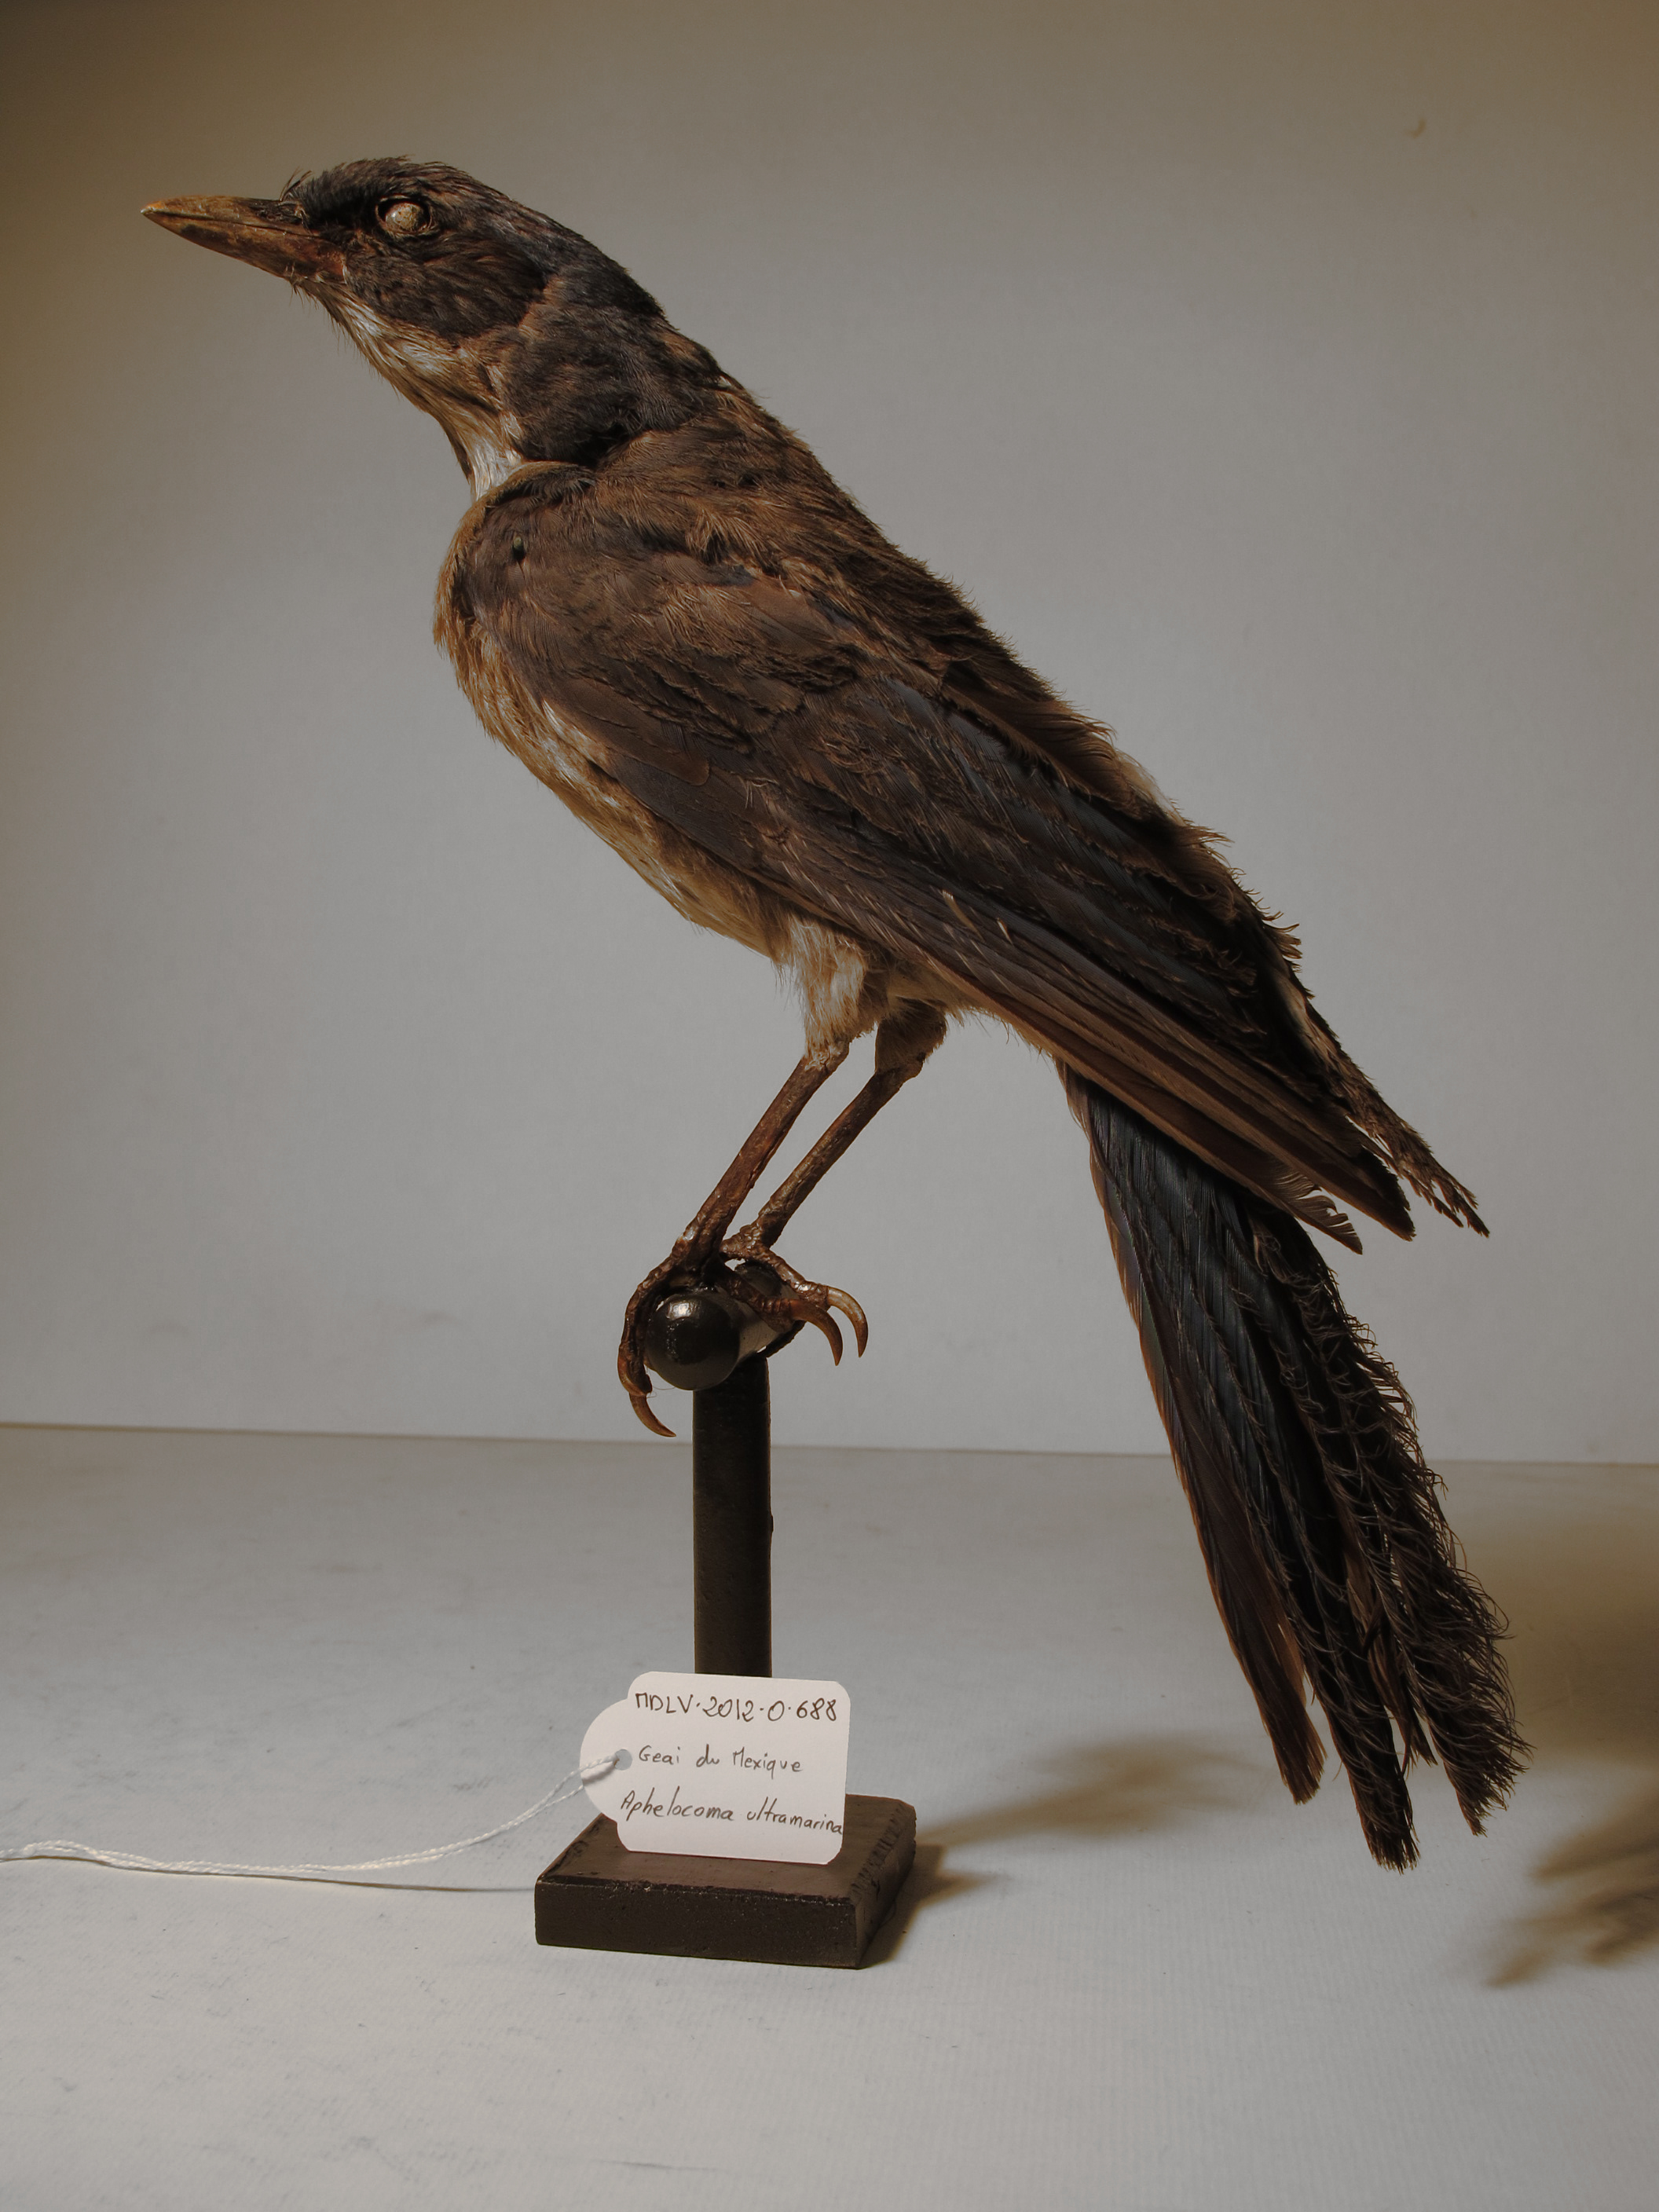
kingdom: Animalia
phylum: Chordata
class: Aves
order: Passeriformes
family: Corvidae
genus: Aphelocoma
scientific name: Aphelocoma ultramarina
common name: Mexican Jay
